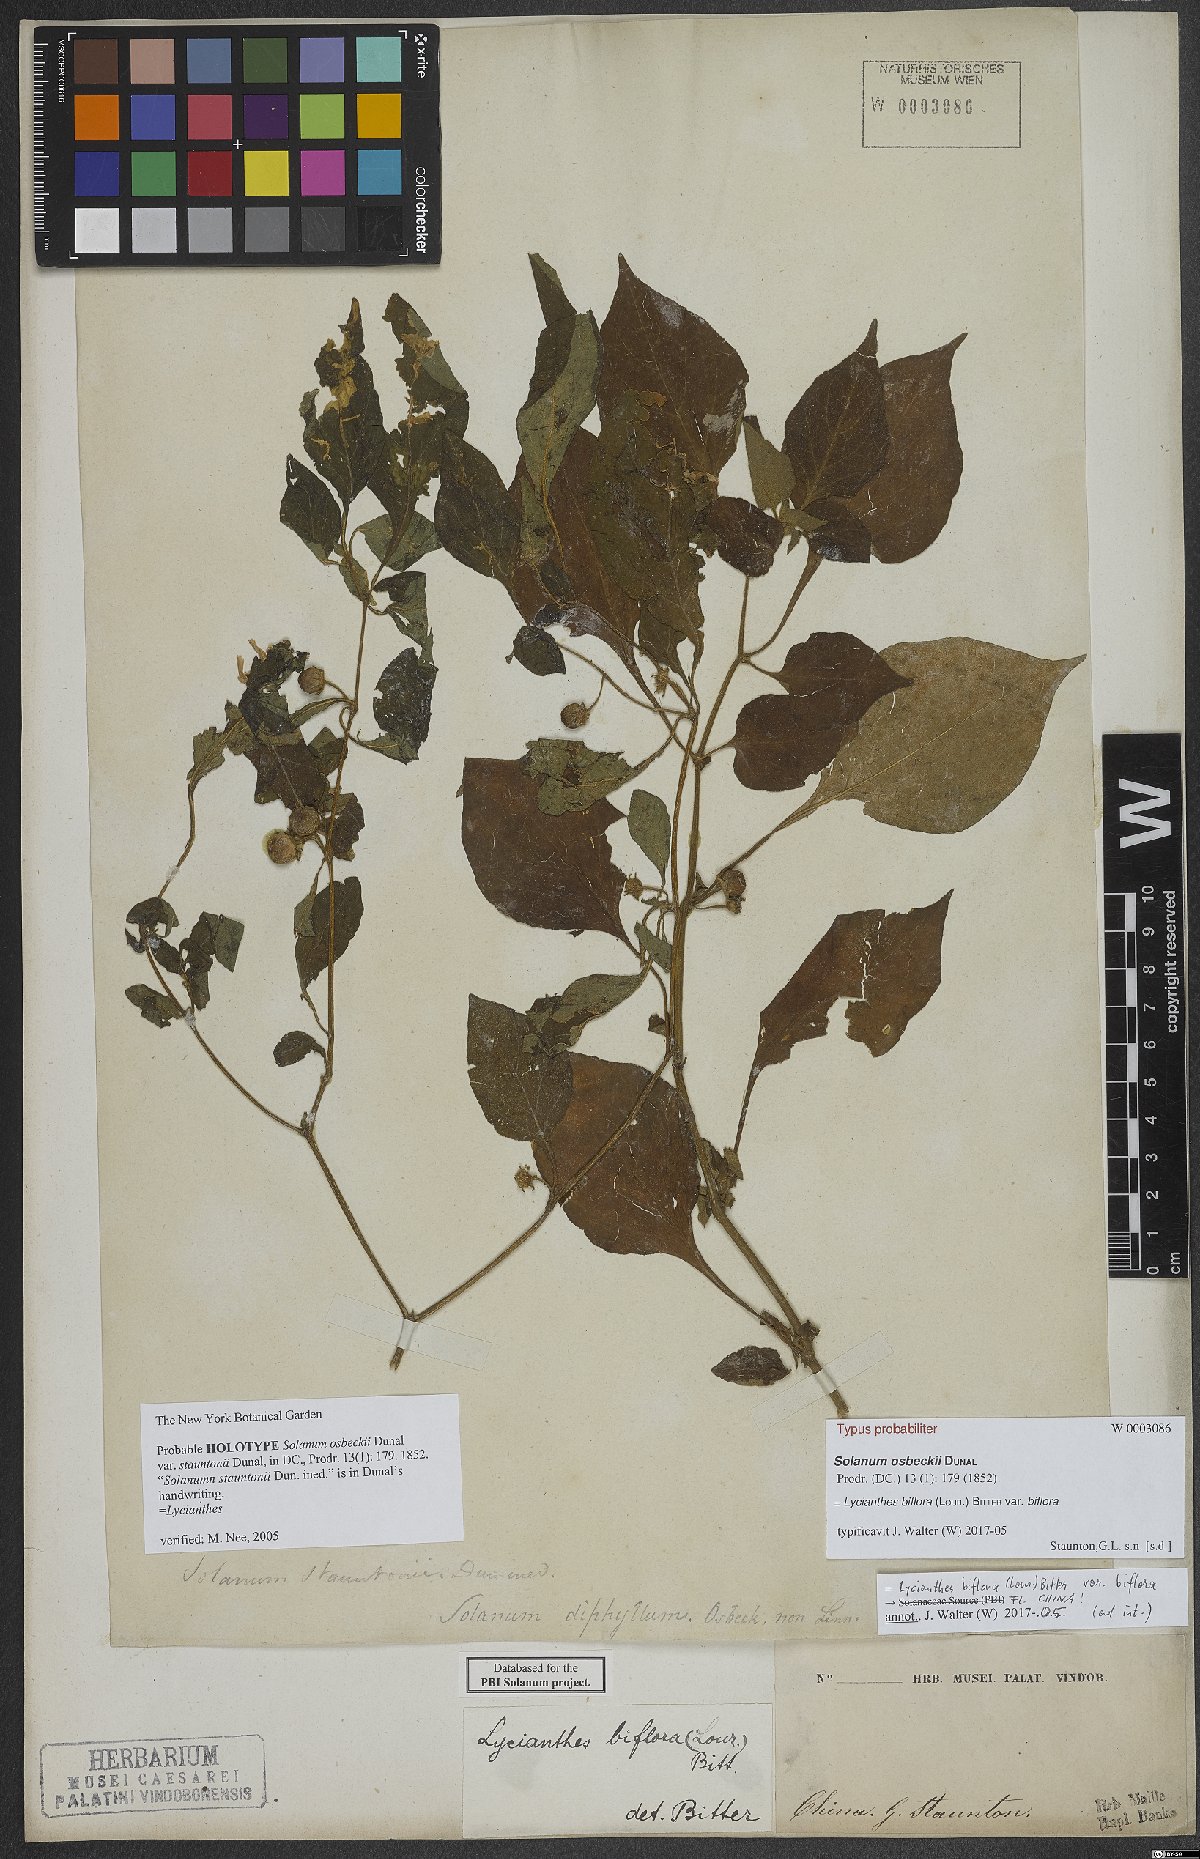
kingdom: Plantae
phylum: Tracheophyta
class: Magnoliopsida
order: Solanales
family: Solanaceae
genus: Lycianthes
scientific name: Lycianthes biflora
